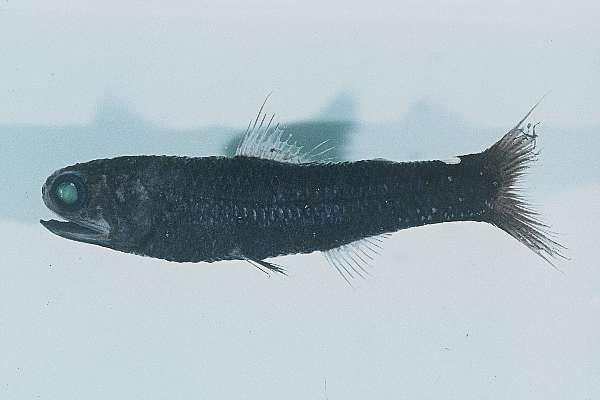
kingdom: Animalia
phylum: Chordata
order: Myctophiformes
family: Myctophidae
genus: Lampadena
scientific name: Lampadena speculigera
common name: Mirror lanternfish
